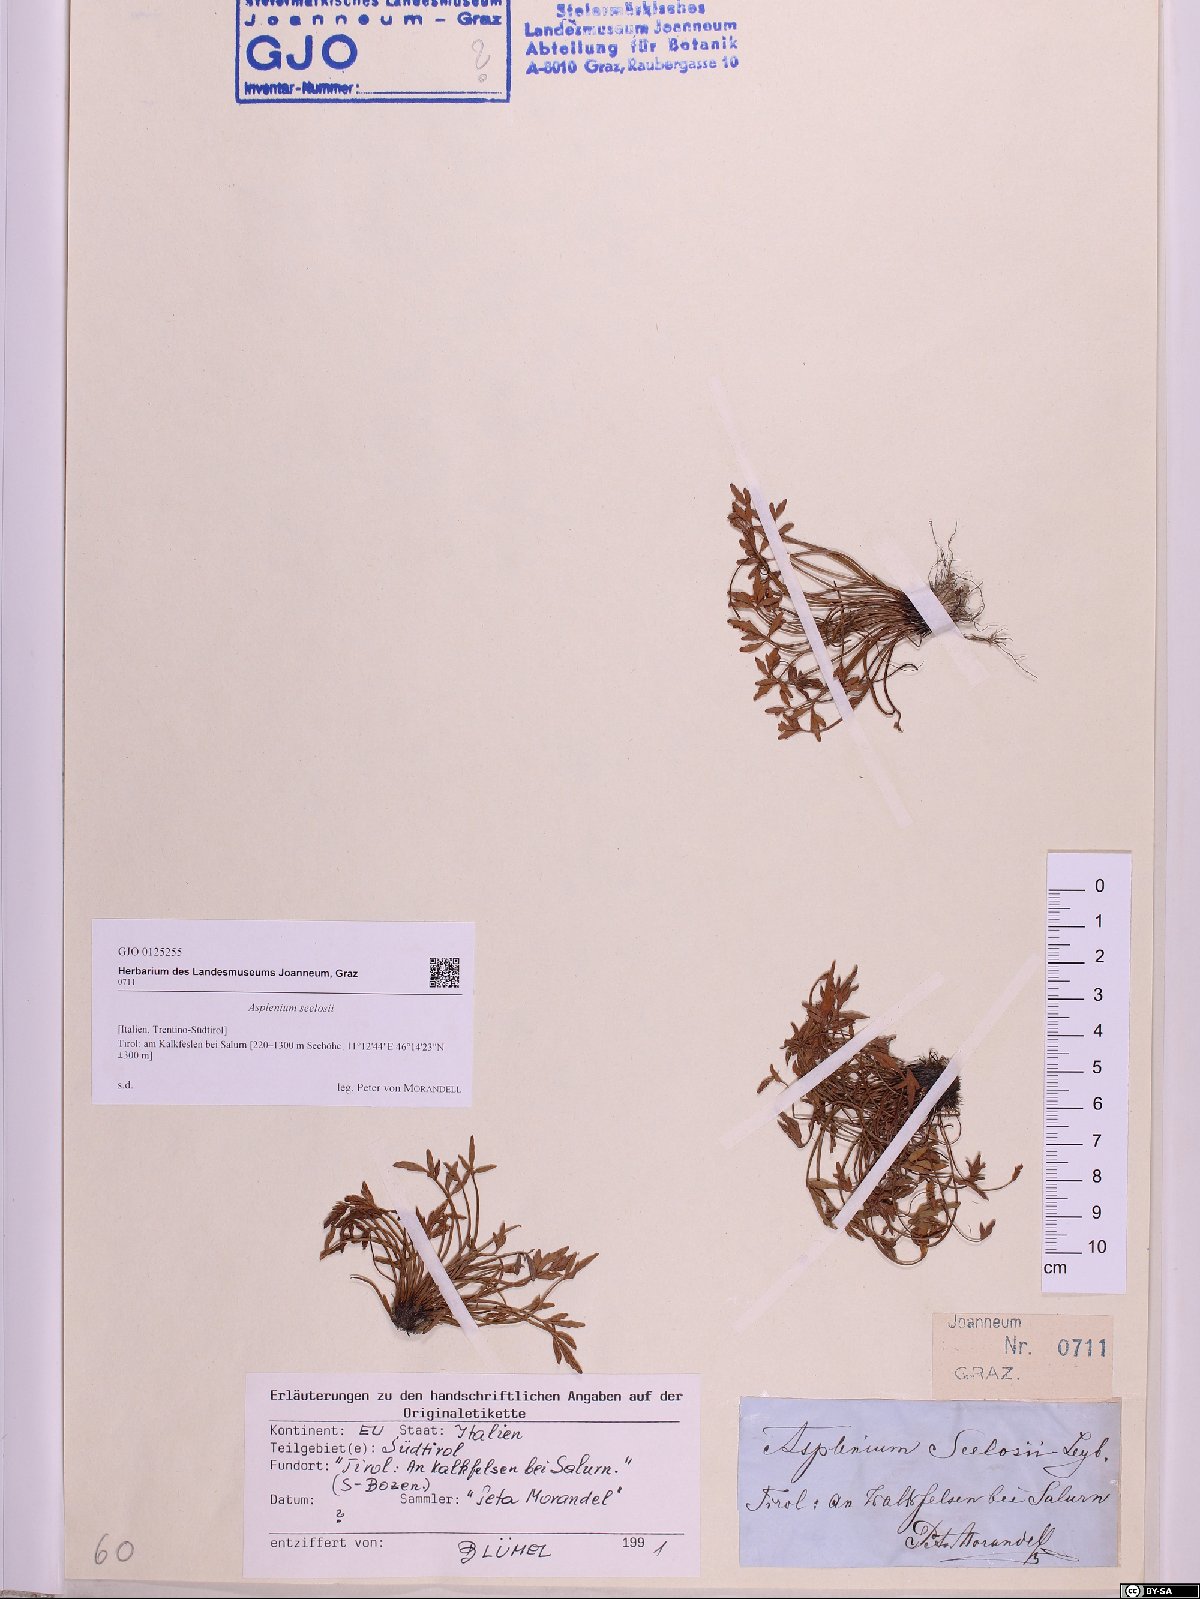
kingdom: Plantae
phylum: Tracheophyta
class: Polypodiopsida
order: Polypodiales
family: Aspleniaceae
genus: Asplenium
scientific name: Asplenium seelosii
